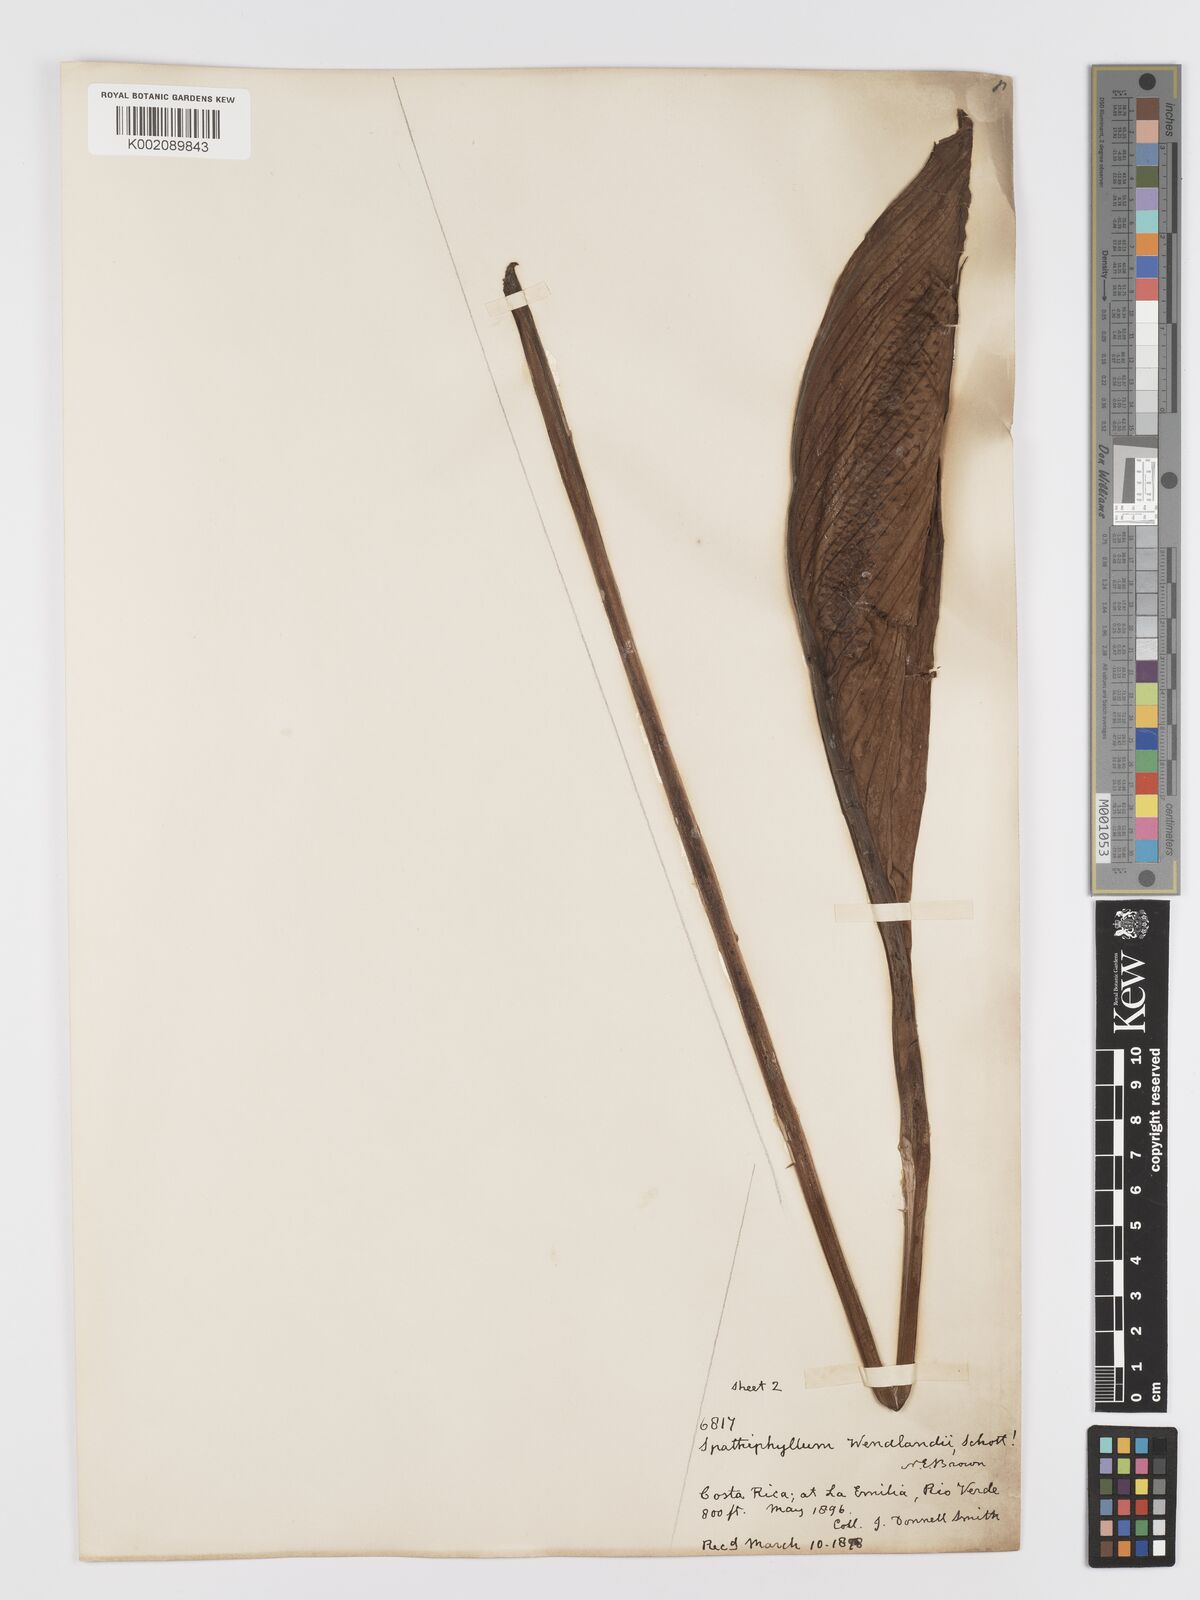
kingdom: Plantae
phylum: Tracheophyta
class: Liliopsida
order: Alismatales
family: Araceae
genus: Spathiphyllum
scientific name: Spathiphyllum wendlandii
